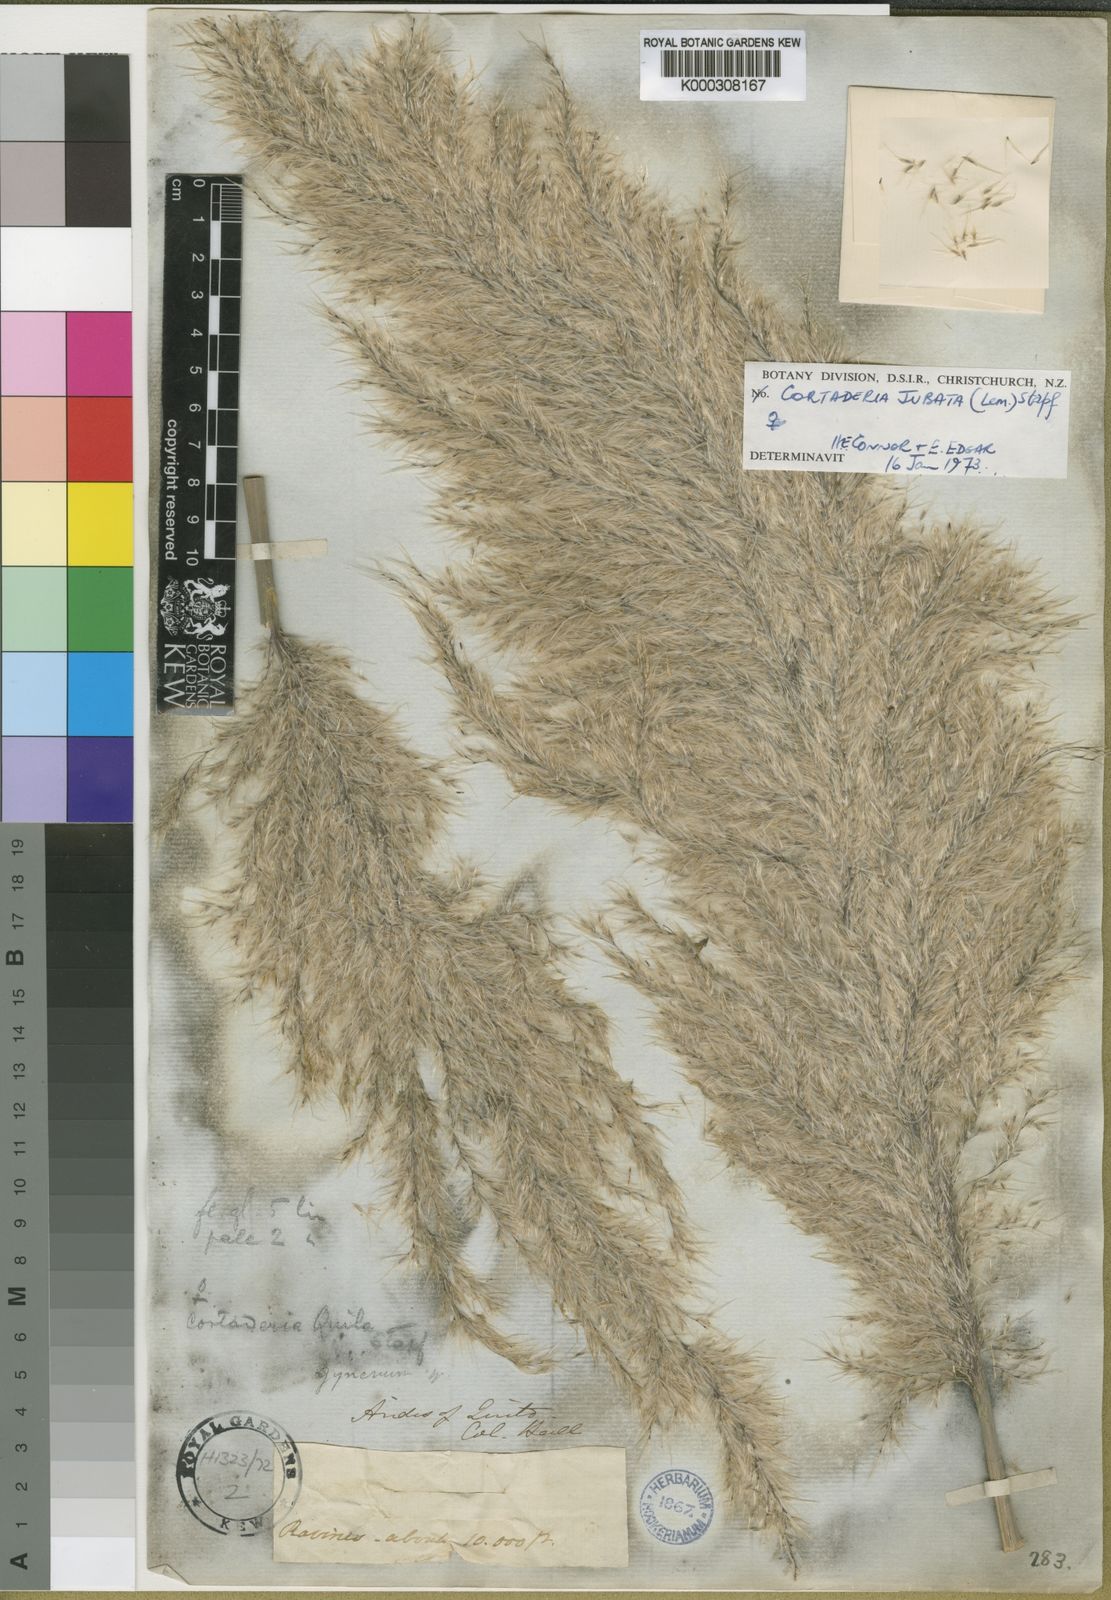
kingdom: Plantae
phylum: Tracheophyta
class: Liliopsida
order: Poales
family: Poaceae
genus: Cortaderia
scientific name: Cortaderia jubata
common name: Purple pampas grass
